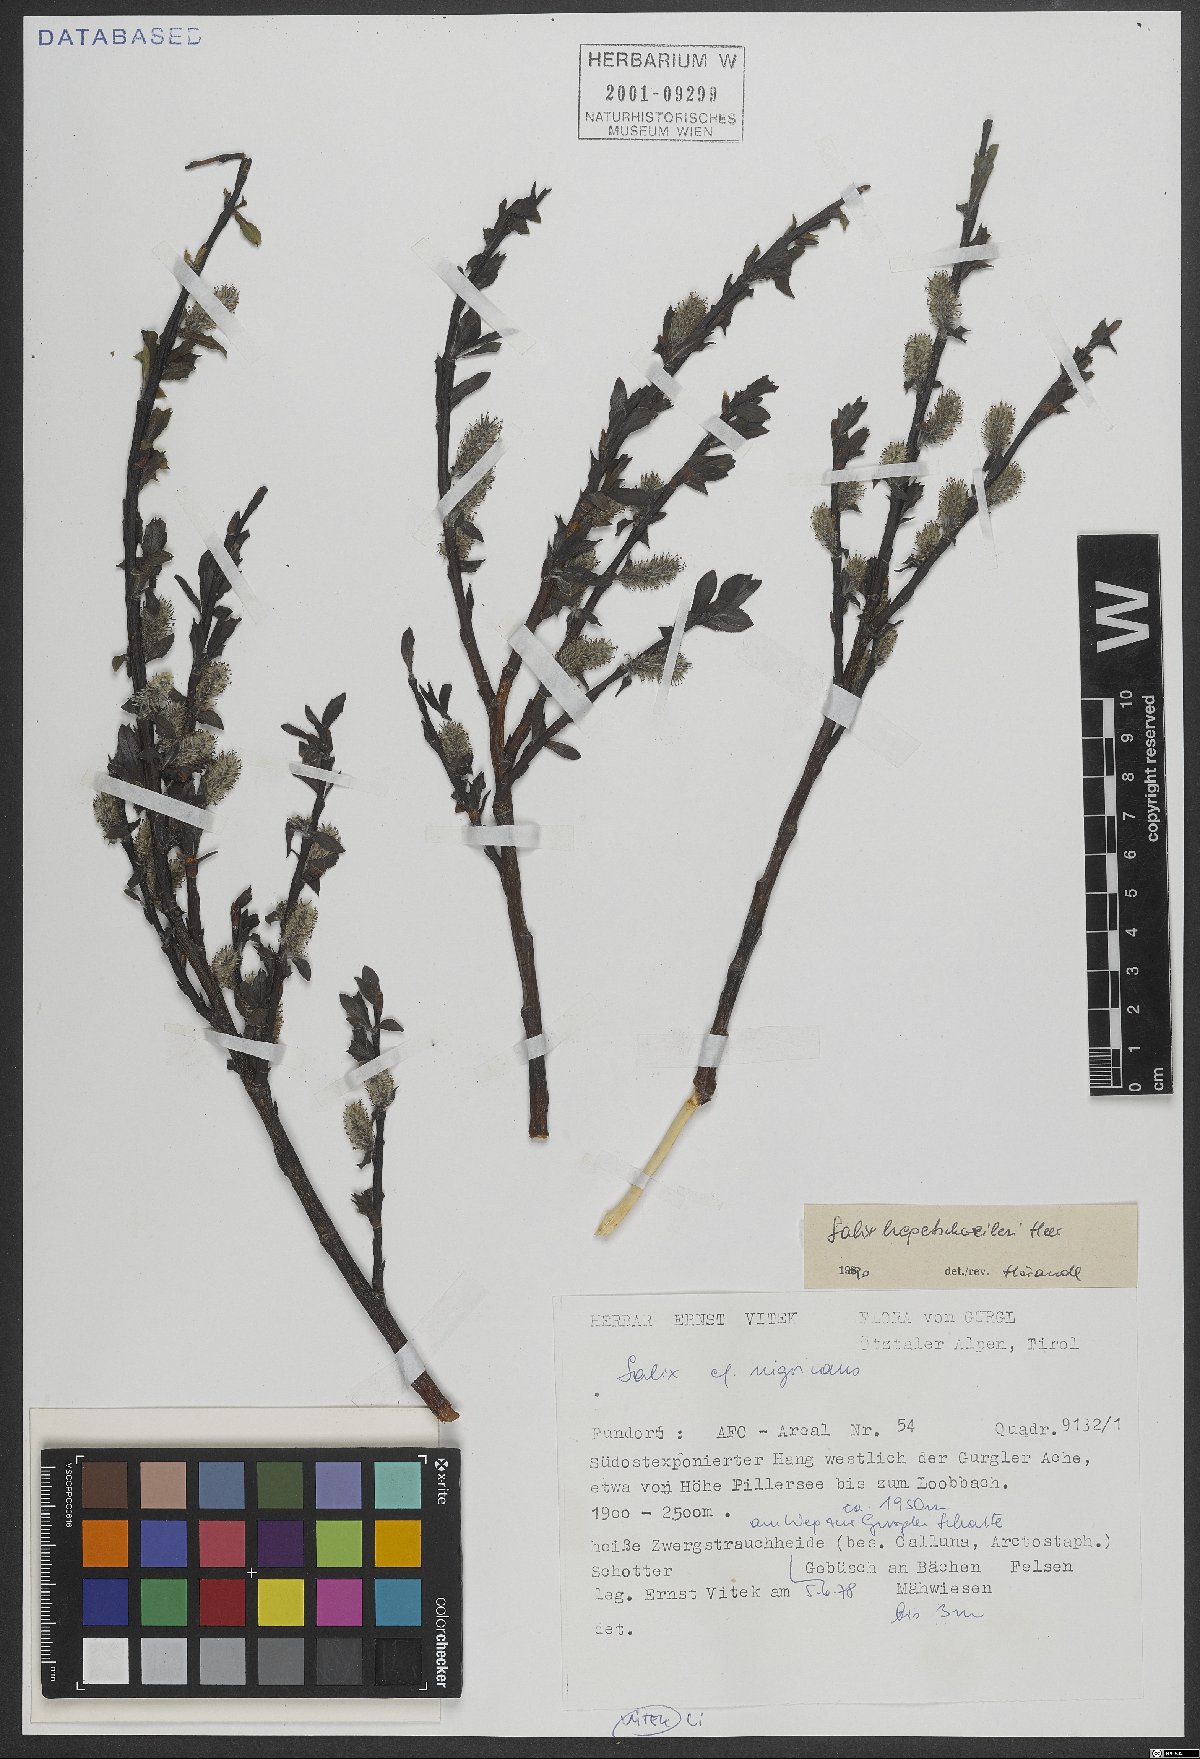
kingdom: Plantae
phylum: Tracheophyta
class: Magnoliopsida
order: Malpighiales
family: Salicaceae
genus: Salix
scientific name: Salix hegetschweileri
